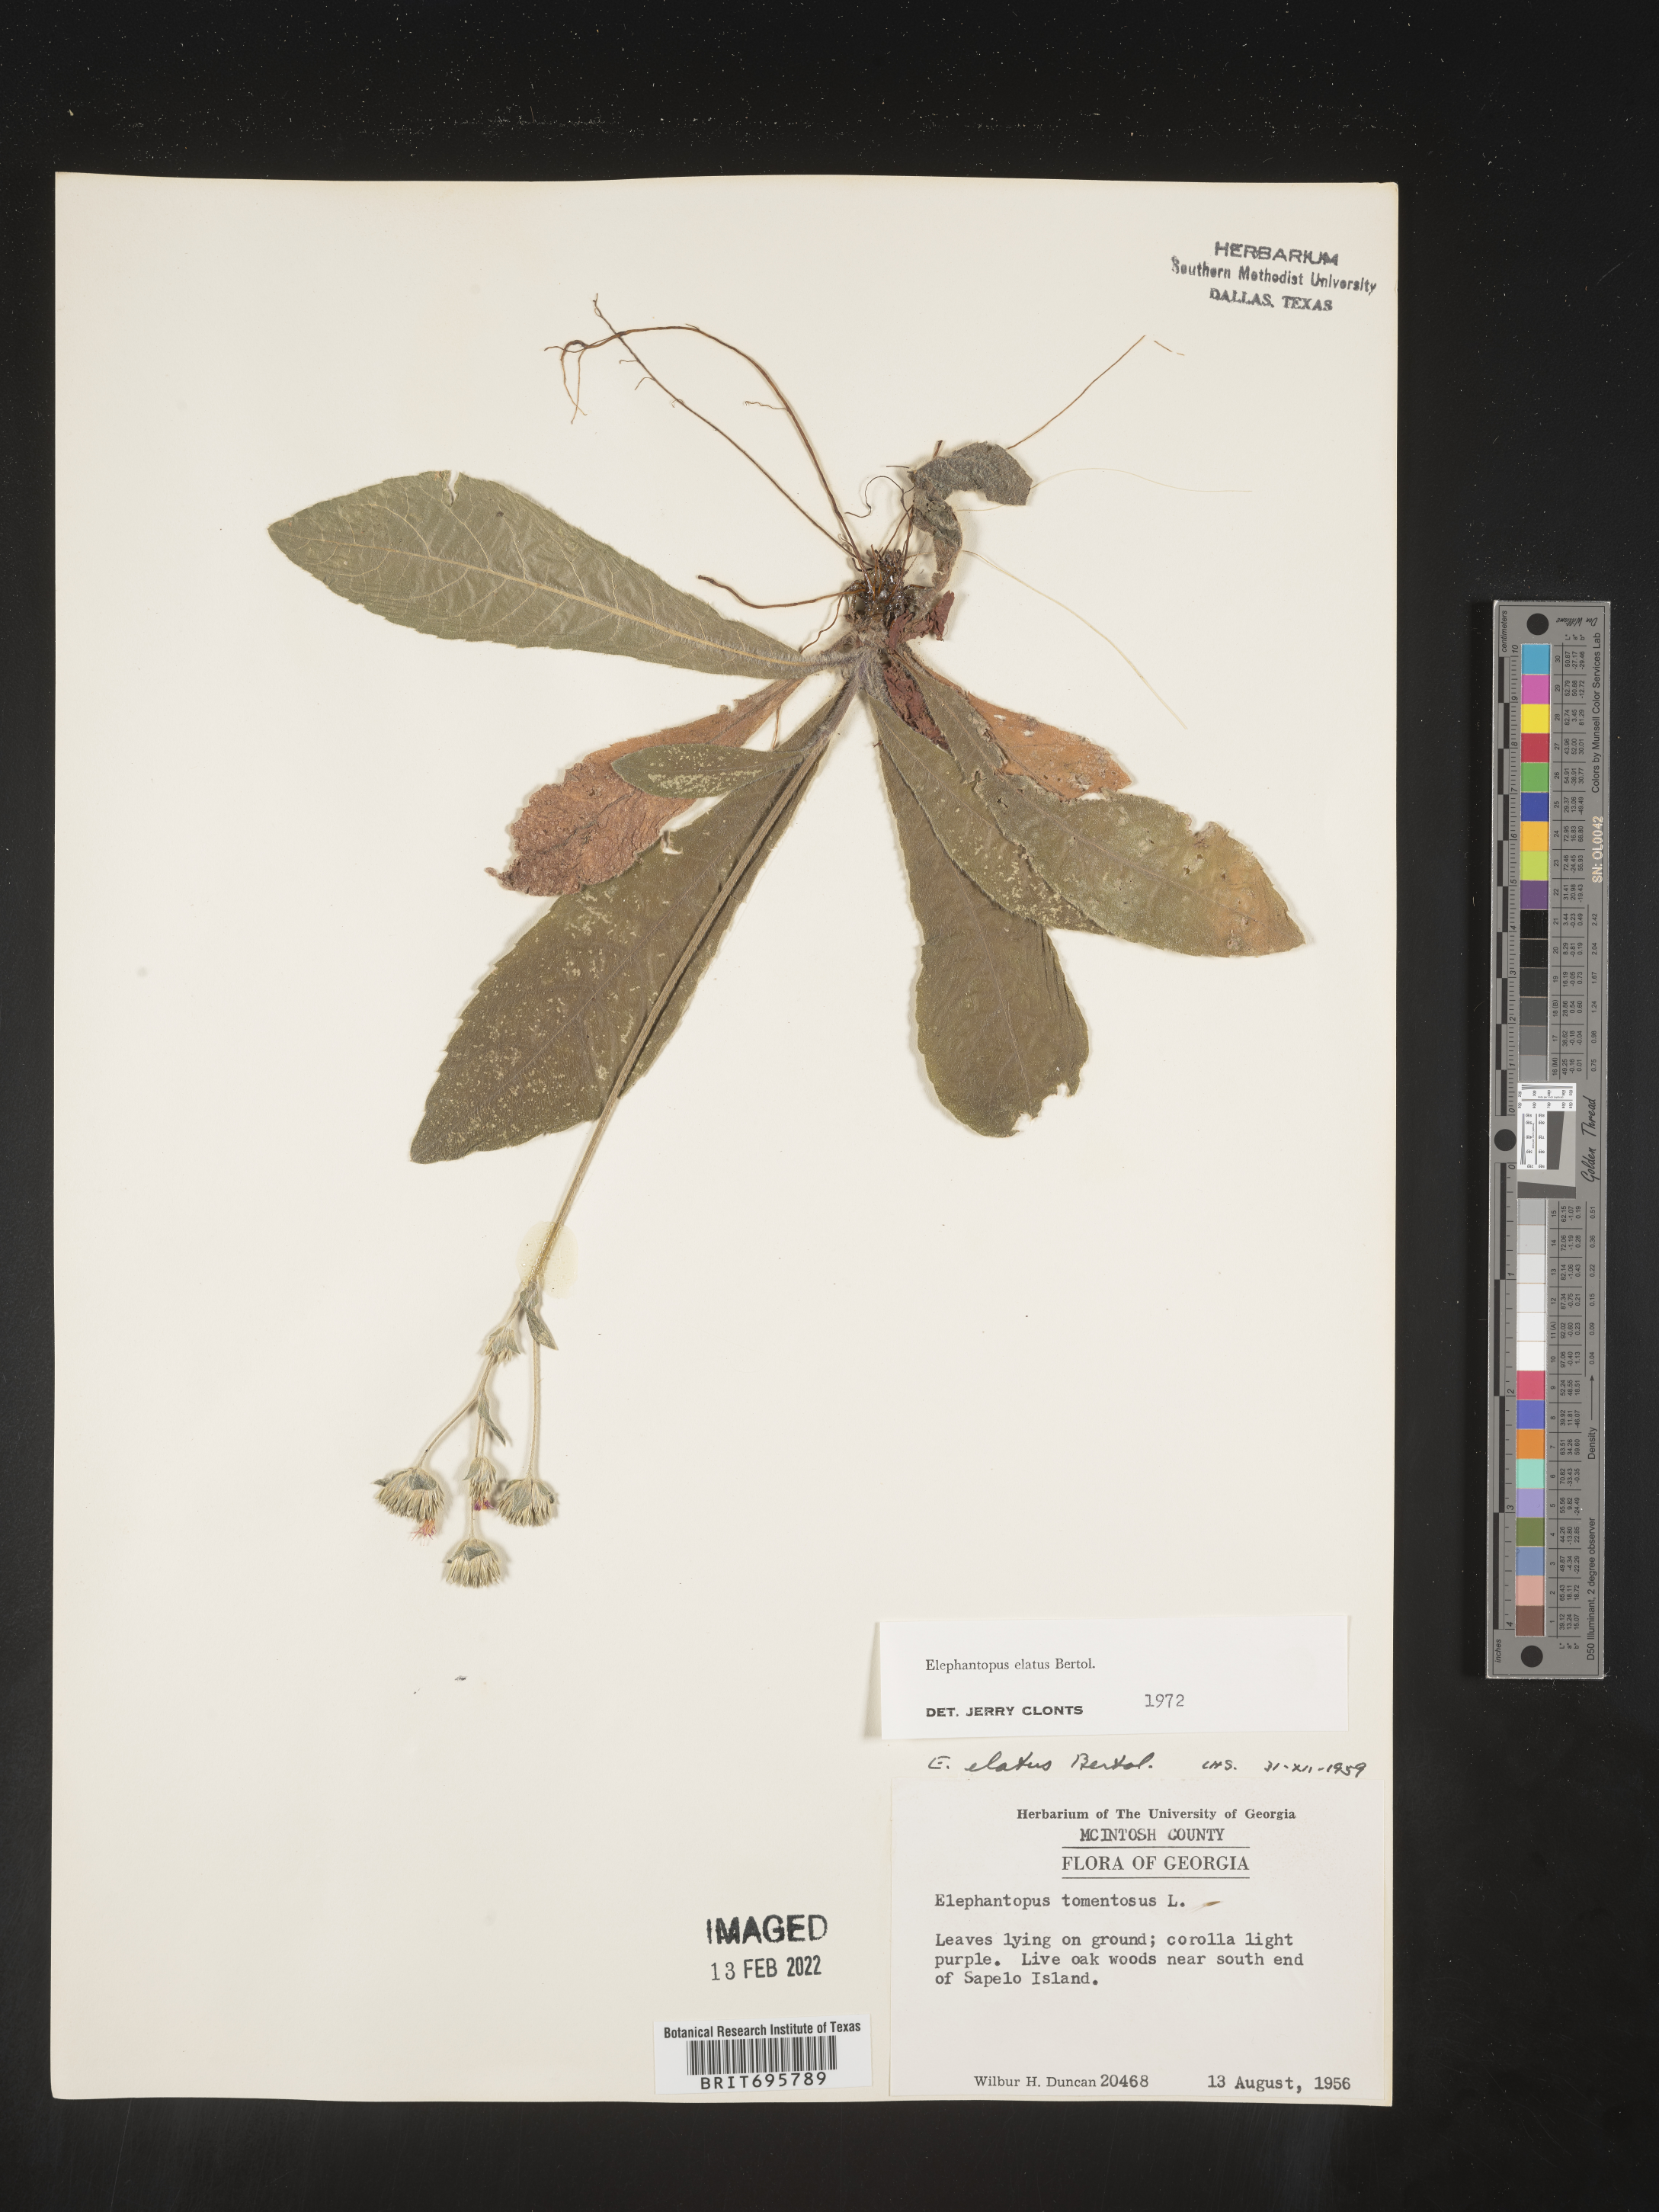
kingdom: Plantae
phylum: Tracheophyta
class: Magnoliopsida
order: Asterales
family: Asteraceae
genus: Elephantopus
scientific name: Elephantopus elatus
